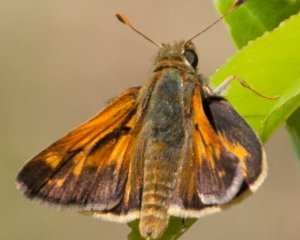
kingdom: Animalia
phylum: Arthropoda
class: Insecta
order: Lepidoptera
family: Hesperiidae
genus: Hesperia
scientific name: Hesperia sassacus
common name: Sassacus Skipper
